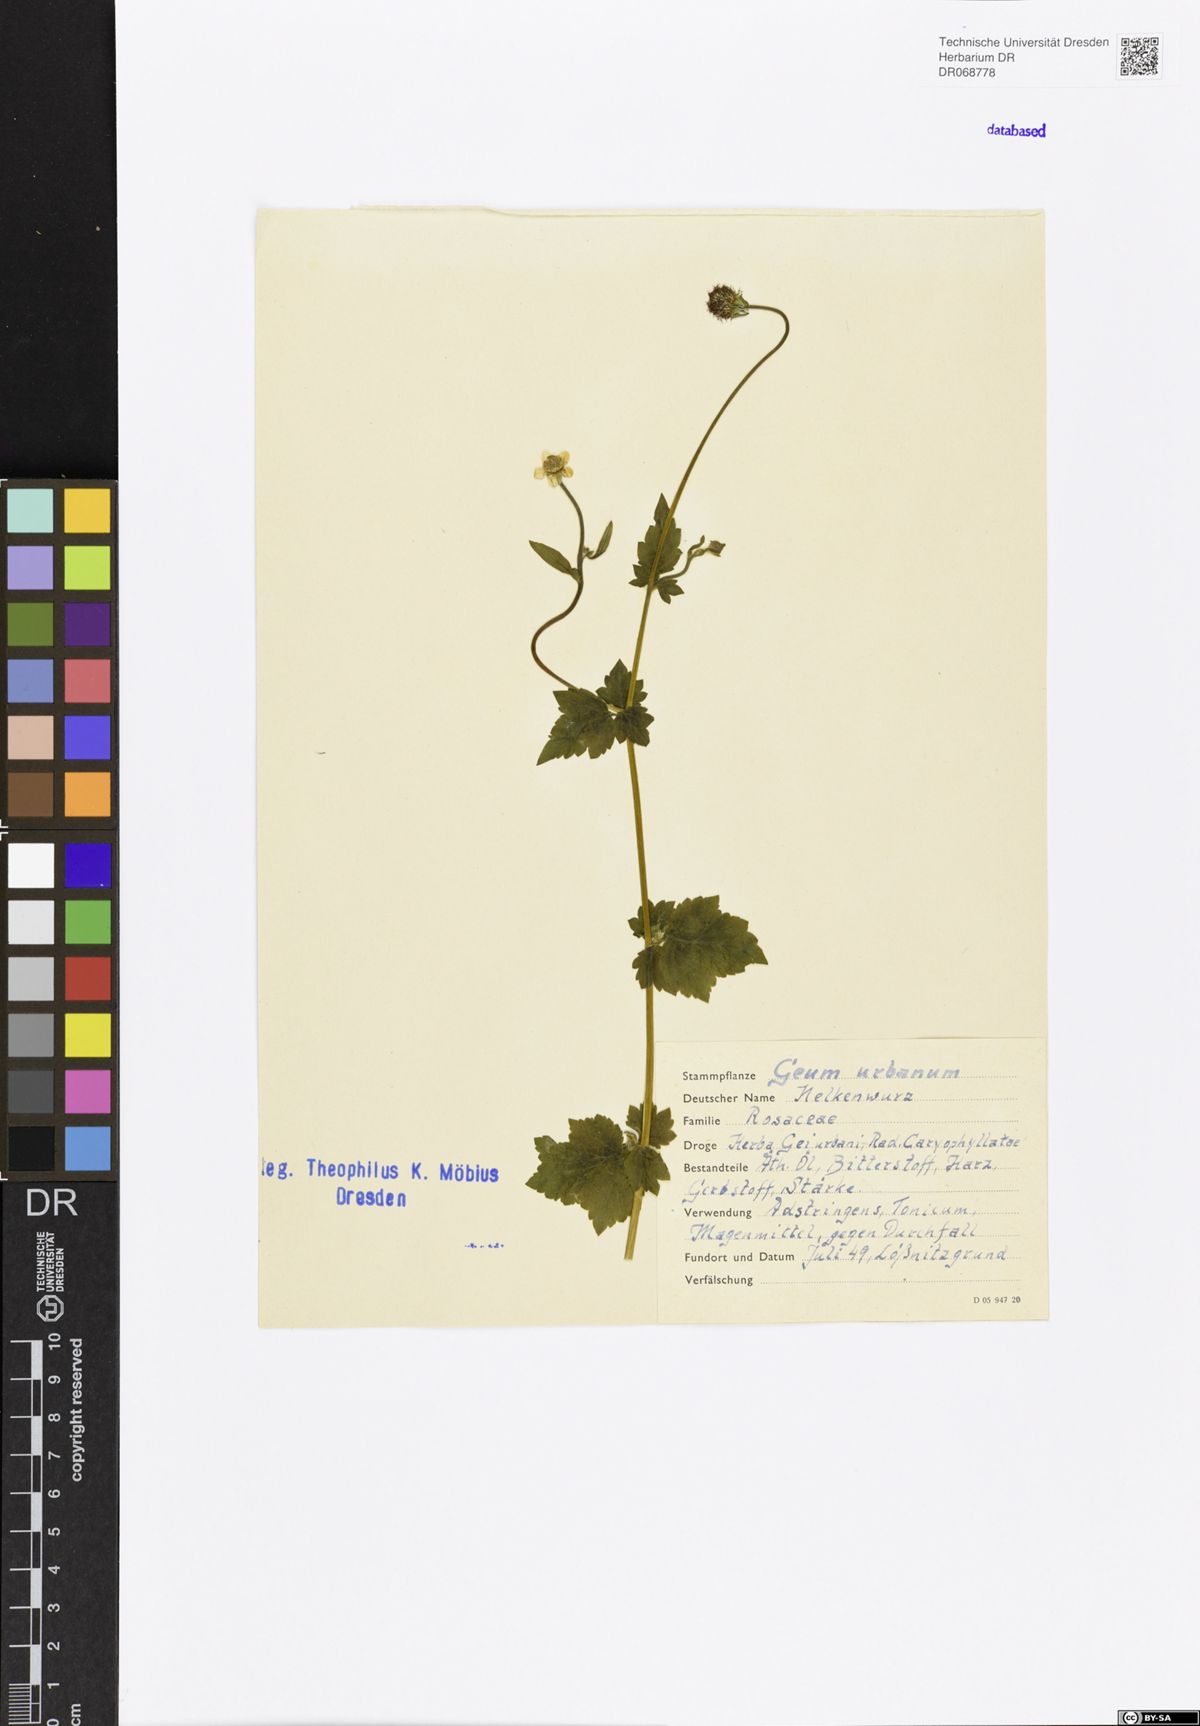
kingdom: Plantae
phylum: Tracheophyta
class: Magnoliopsida
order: Rosales
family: Rosaceae
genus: Geum
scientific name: Geum urbanum
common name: Wood avens
